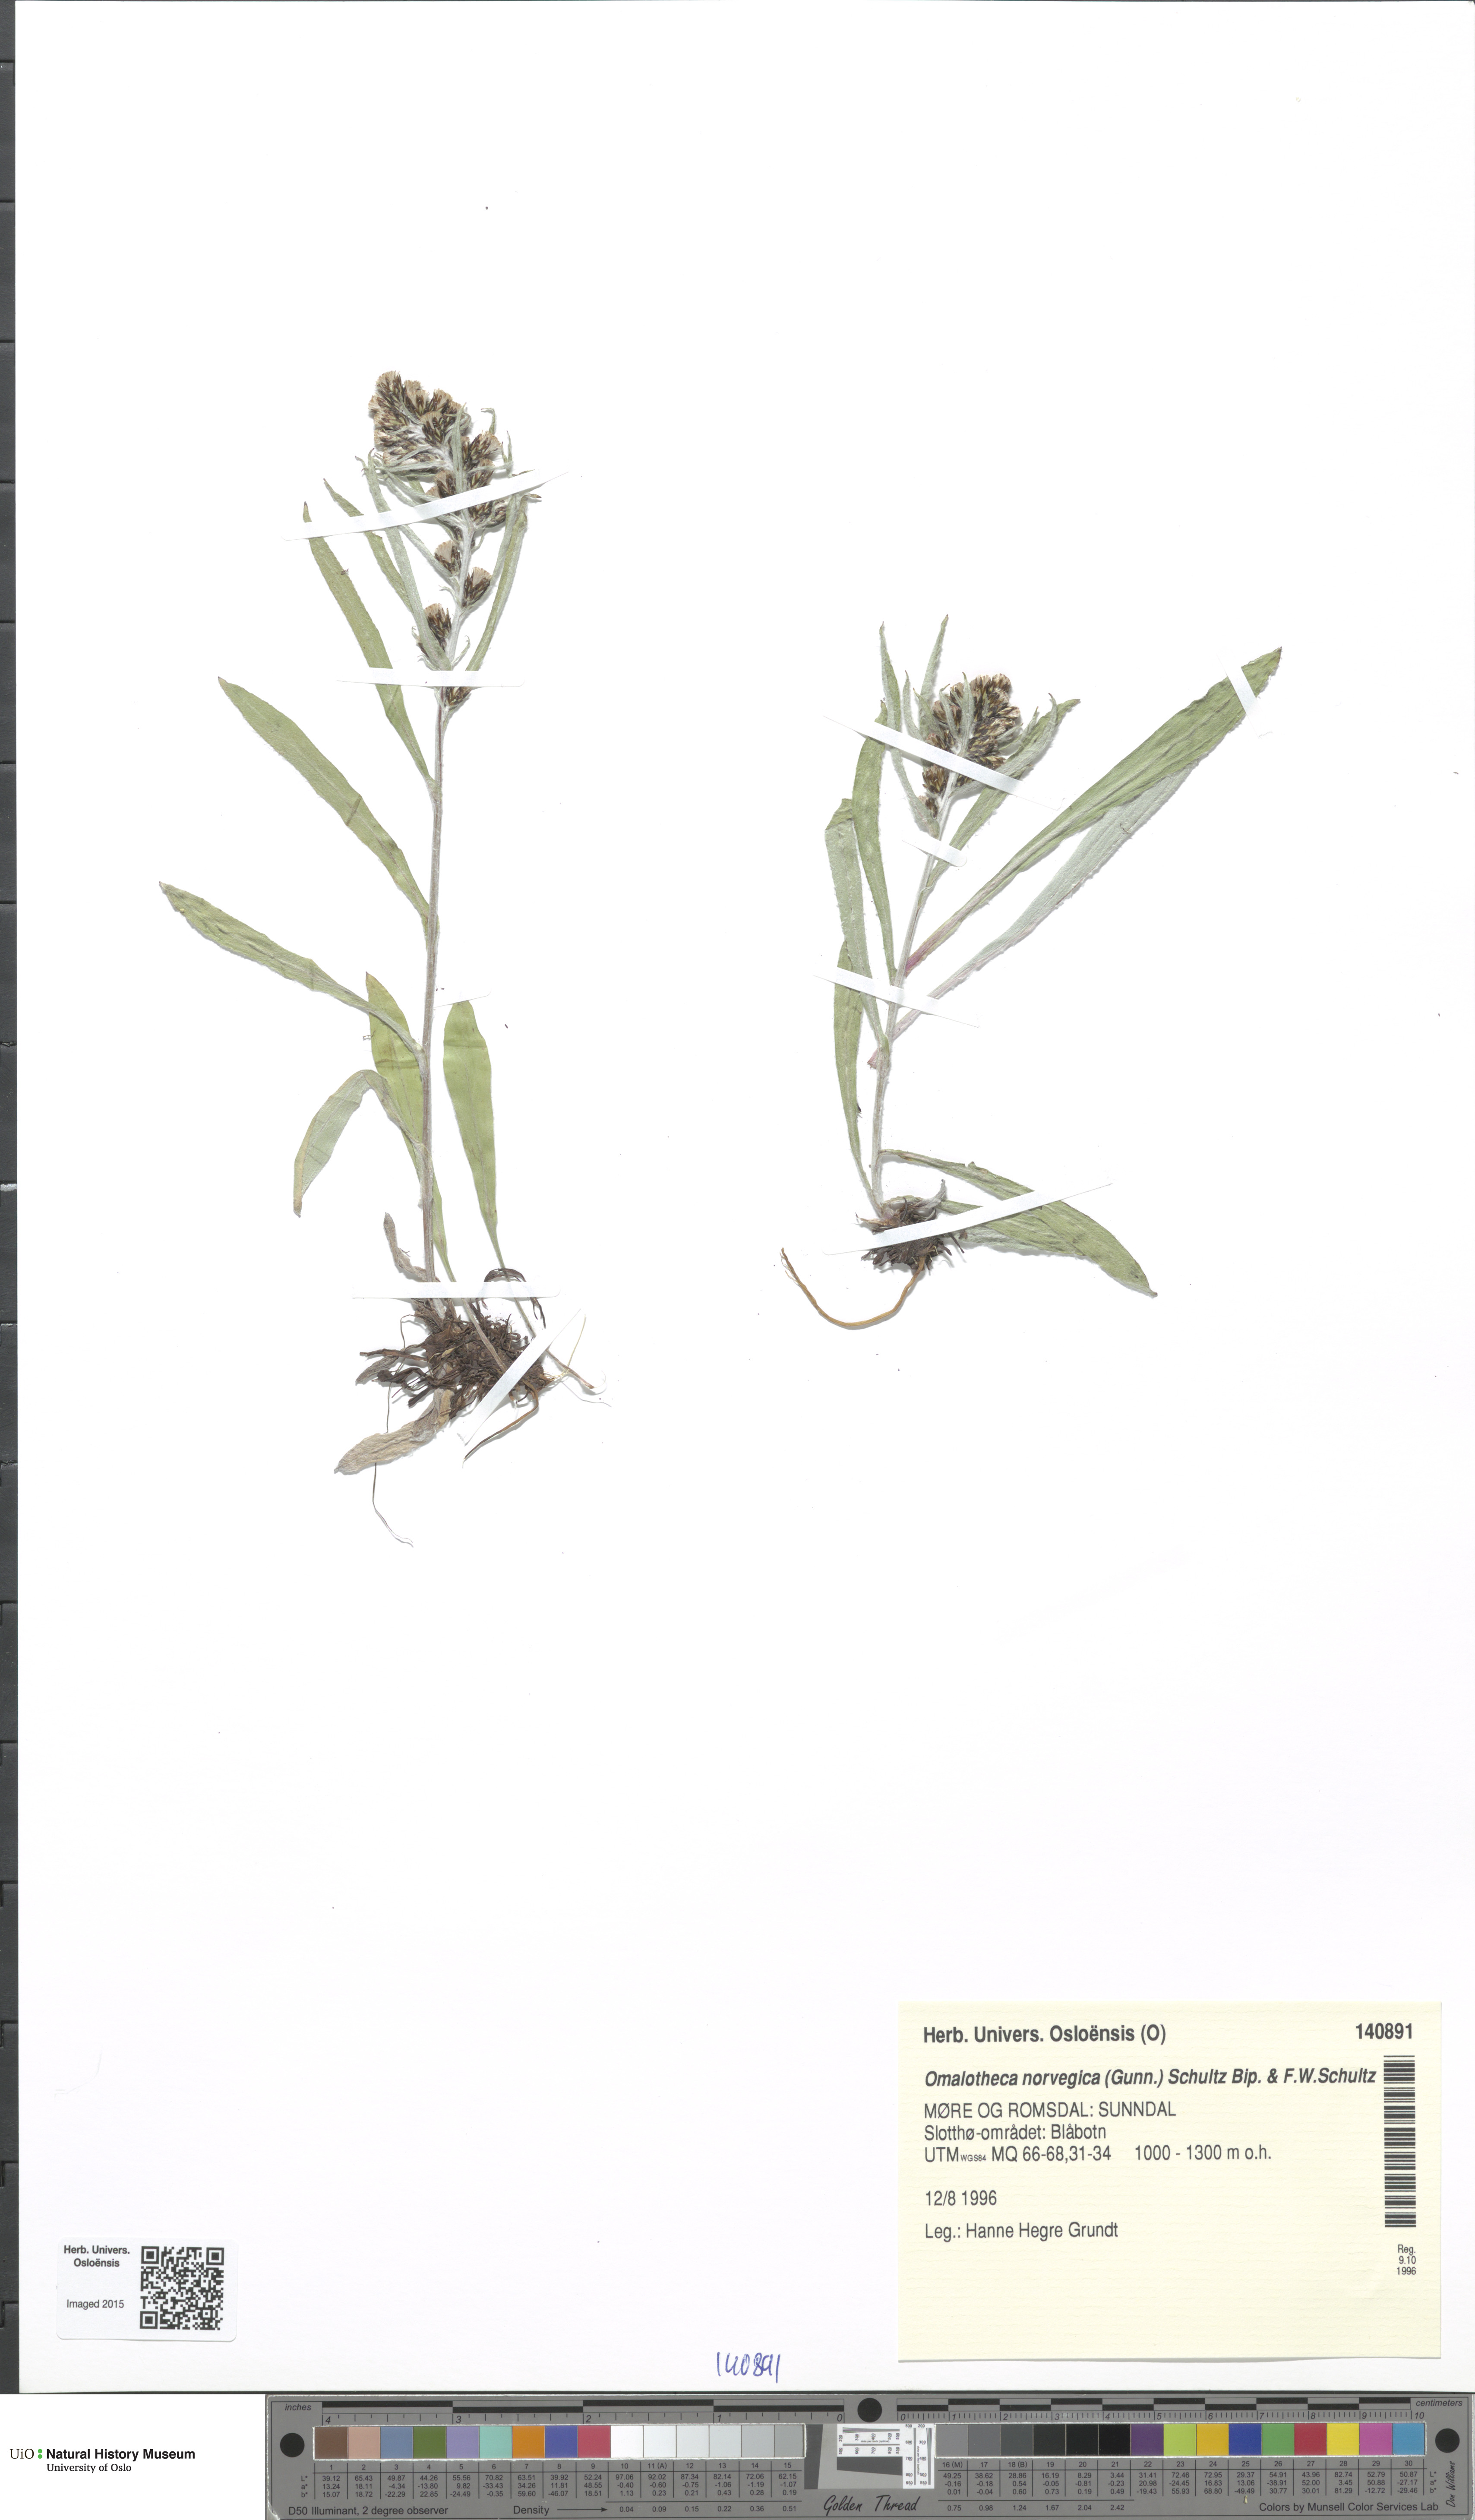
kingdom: Plantae
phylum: Tracheophyta
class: Magnoliopsida
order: Asterales
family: Asteraceae
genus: Omalotheca
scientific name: Omalotheca norvegica
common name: Norwegian arctic-cudweed
